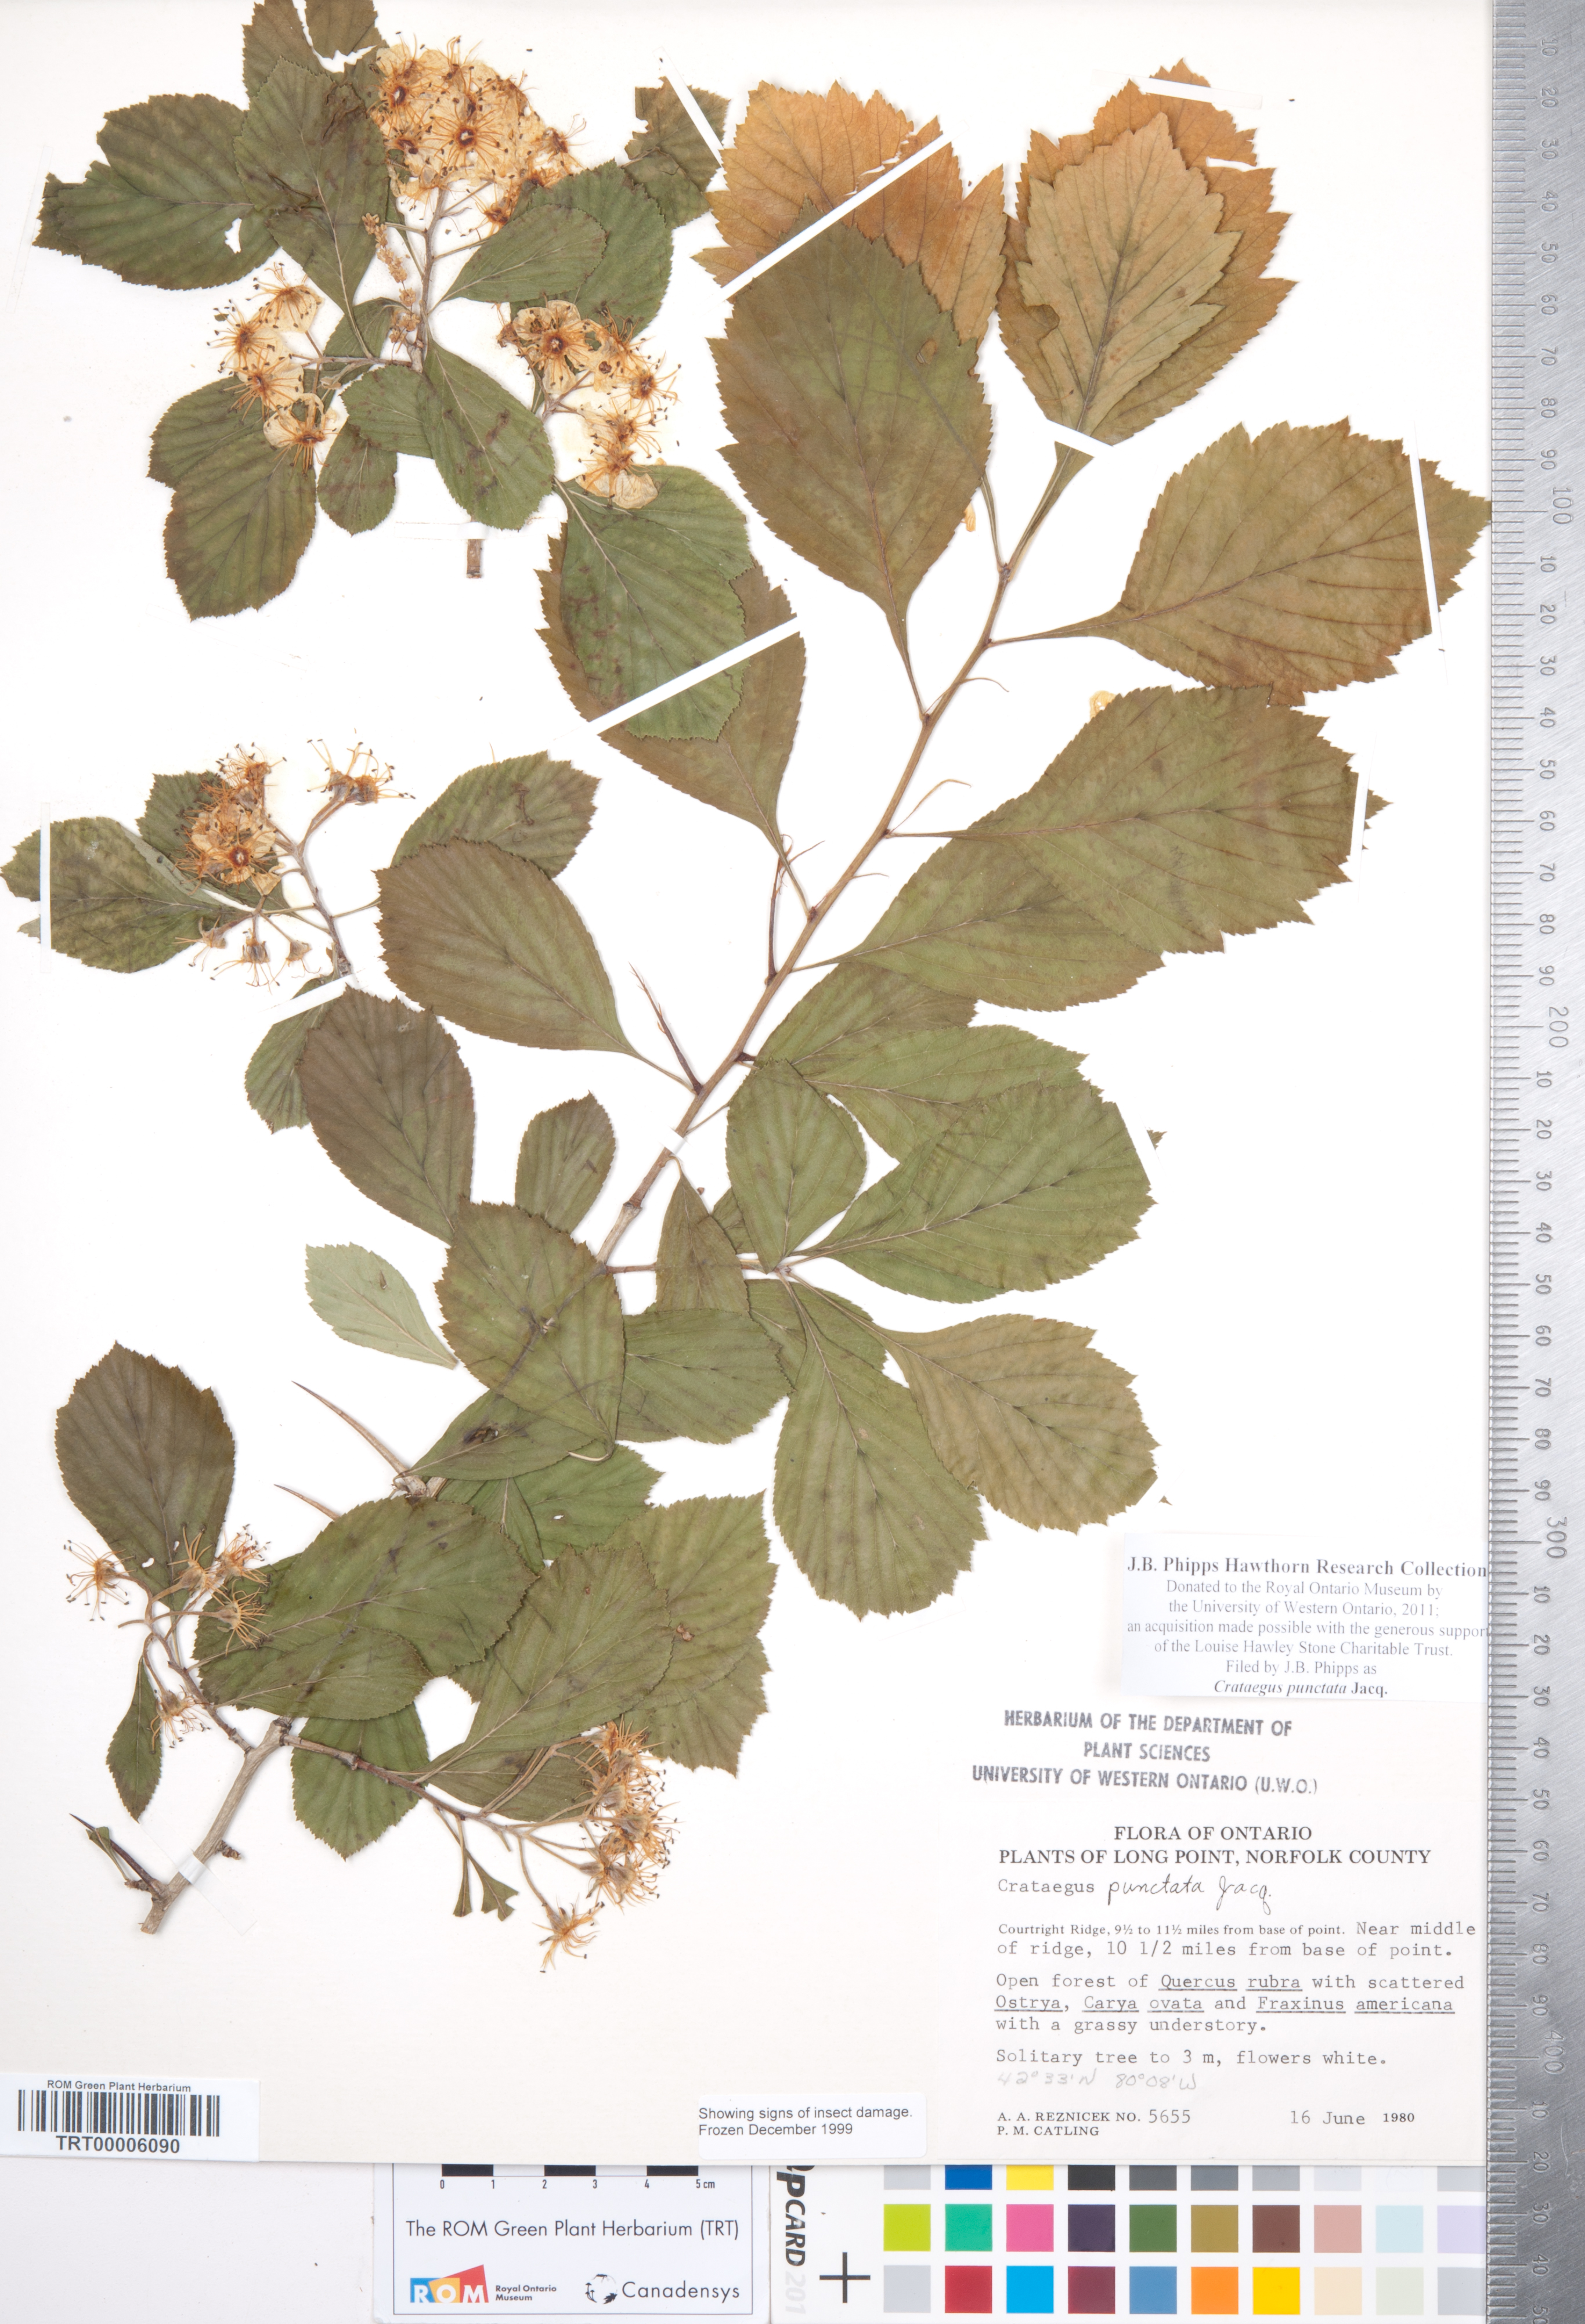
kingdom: Plantae
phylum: Tracheophyta
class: Magnoliopsida
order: Rosales
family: Rosaceae
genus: Crataegus
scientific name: Crataegus punctata
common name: Dotted hawthorn
